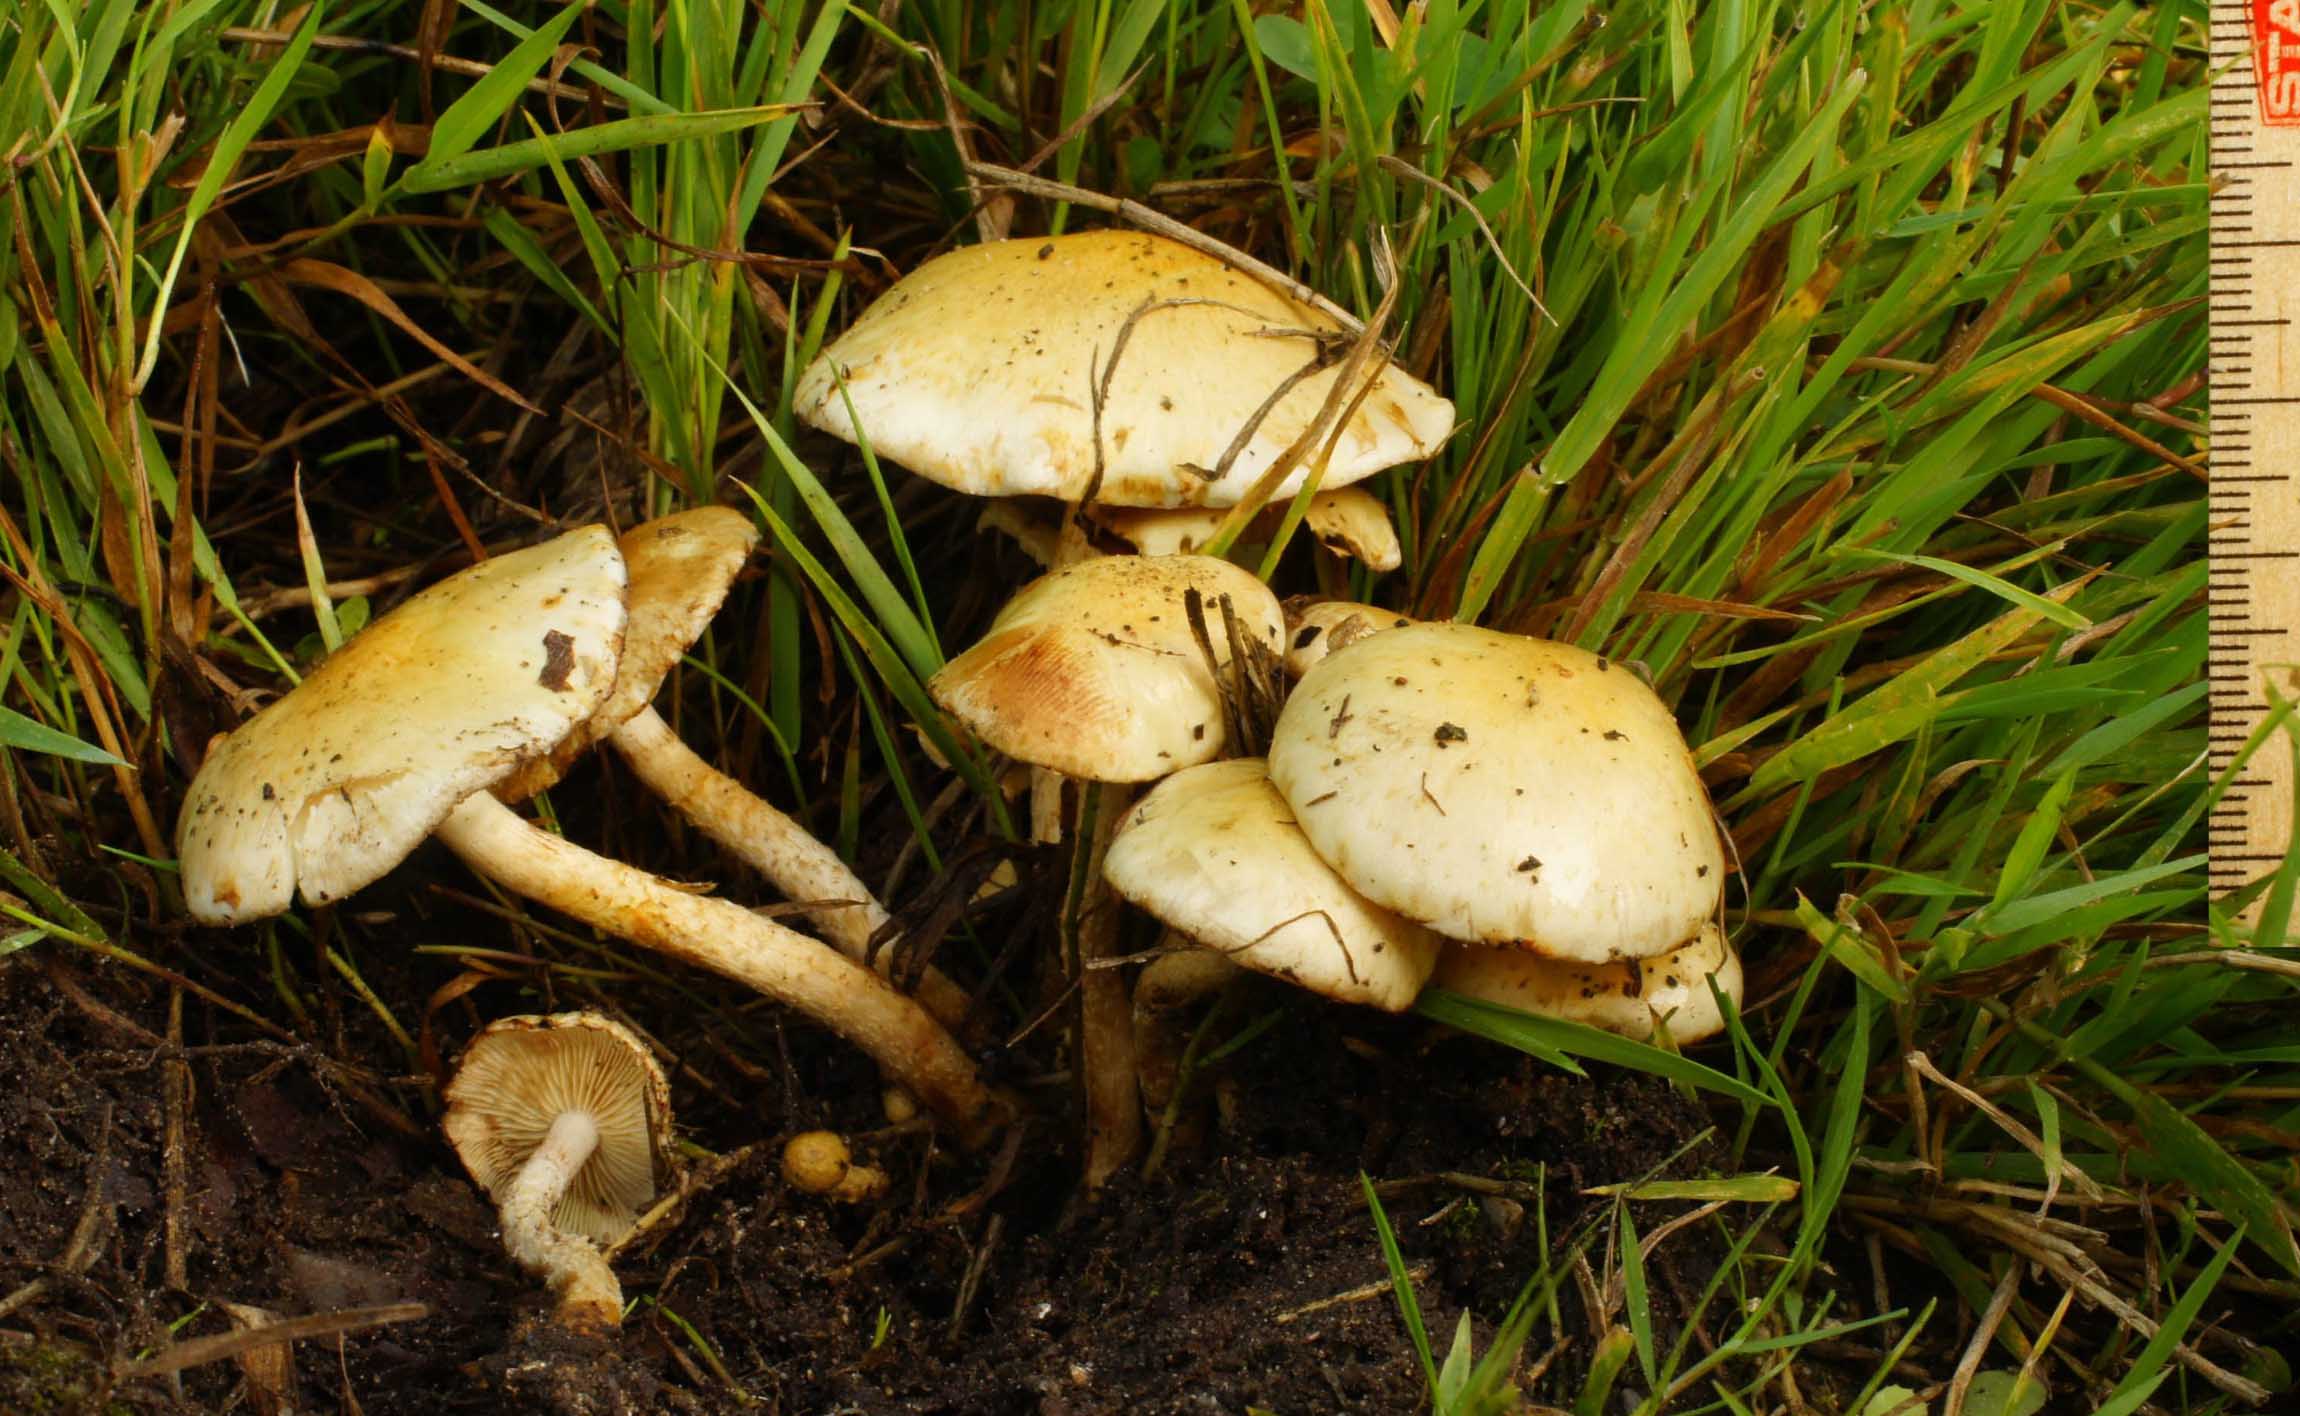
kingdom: Fungi
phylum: Basidiomycota
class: Agaricomycetes
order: Agaricales
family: Strophariaceae
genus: Pholiota
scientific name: Pholiota gummosa
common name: grøngul skælhat
